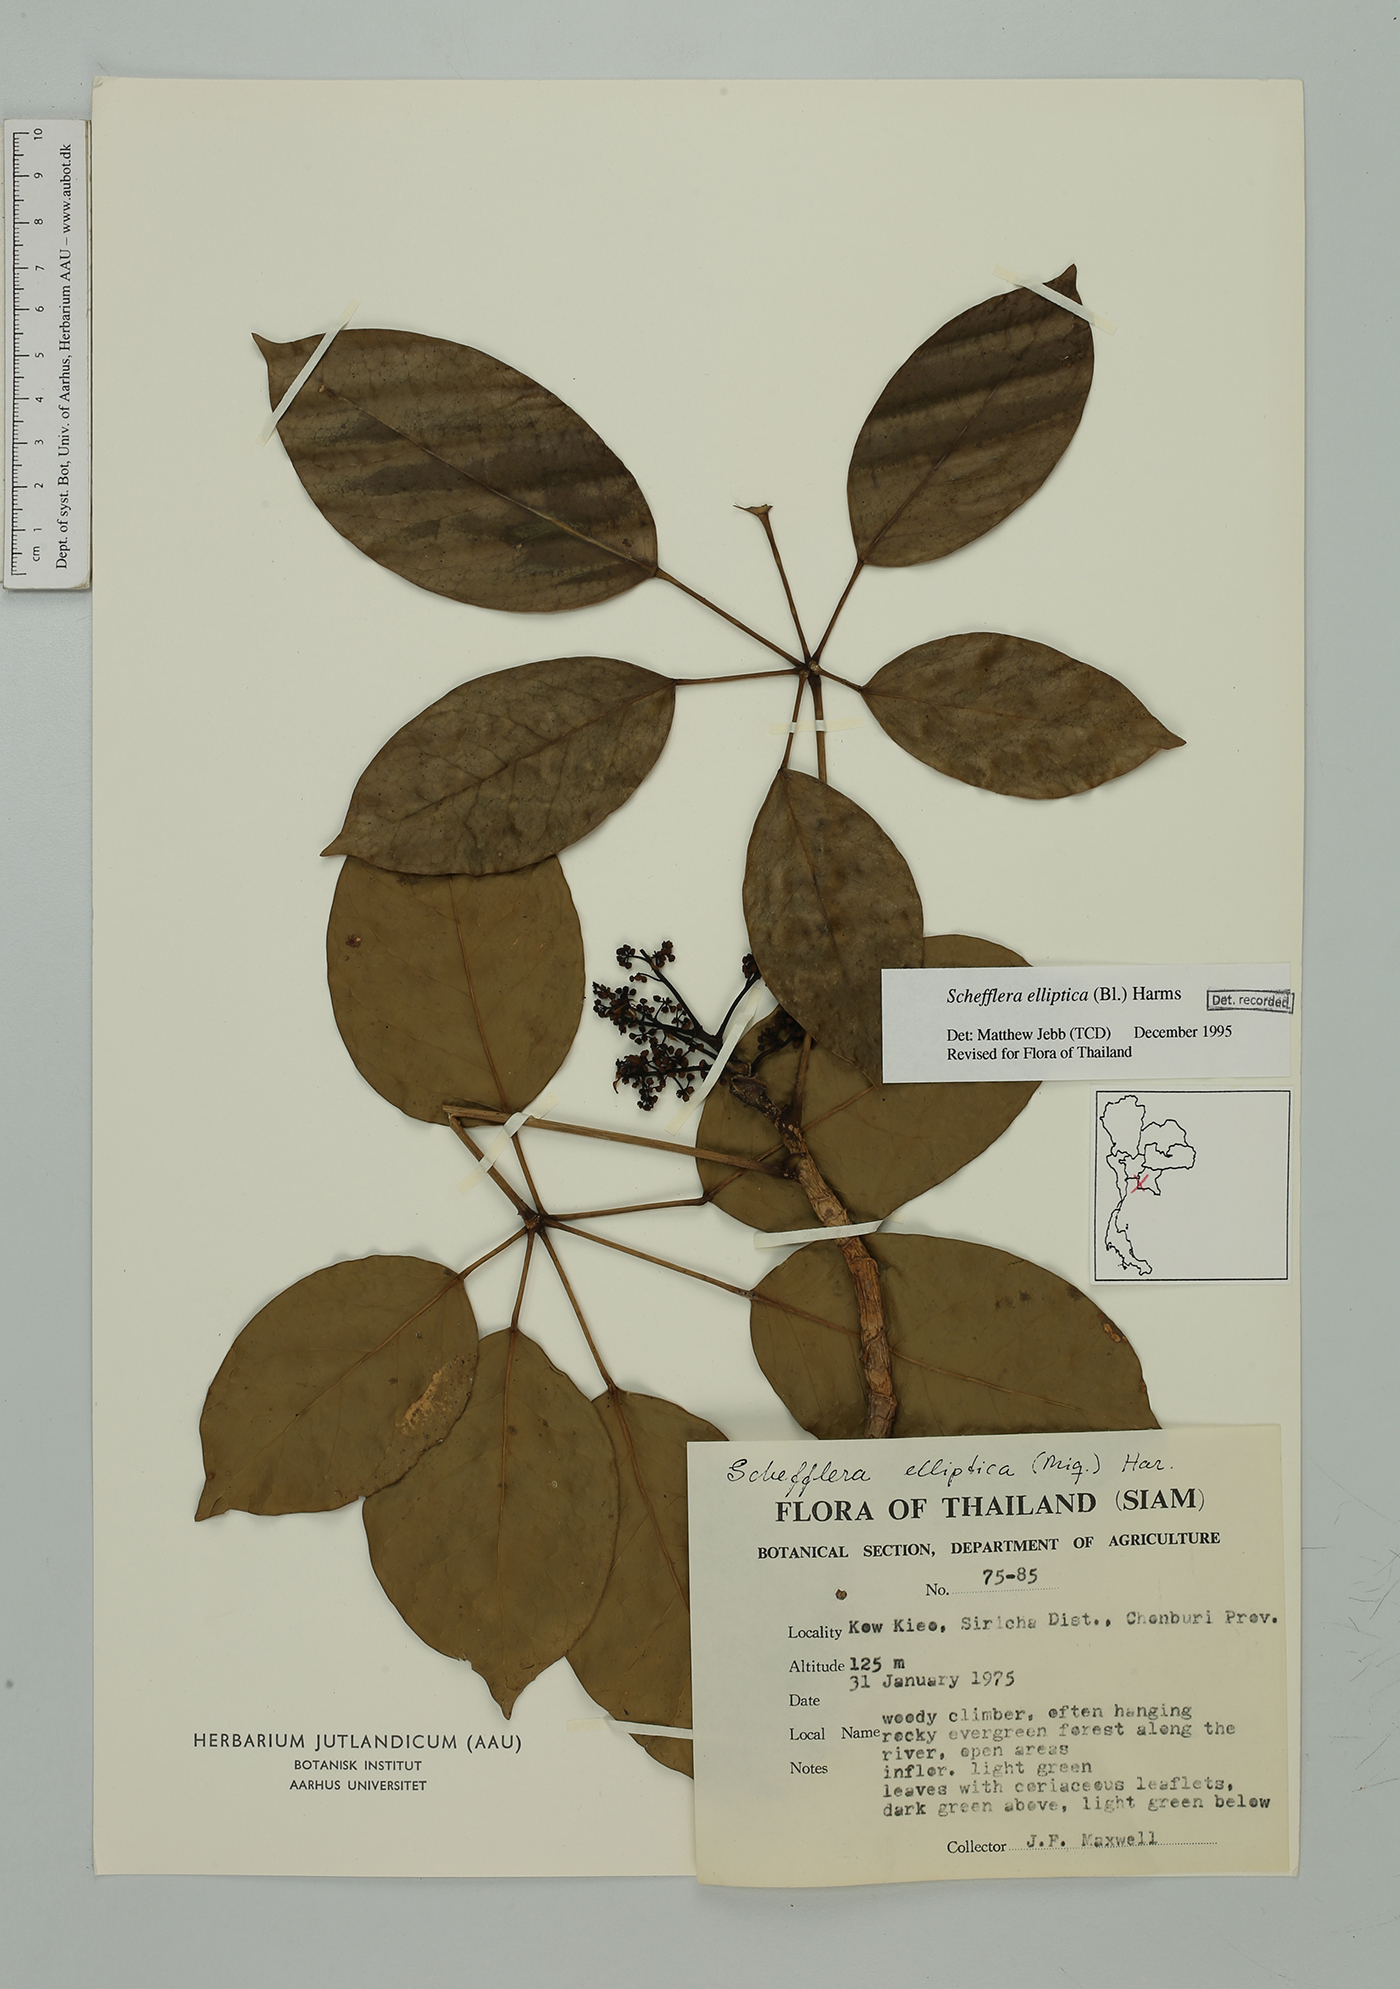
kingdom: Plantae
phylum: Tracheophyta
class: Magnoliopsida
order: Apiales
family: Araliaceae
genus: Heptapleurum
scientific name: Heptapleurum ellipticum
